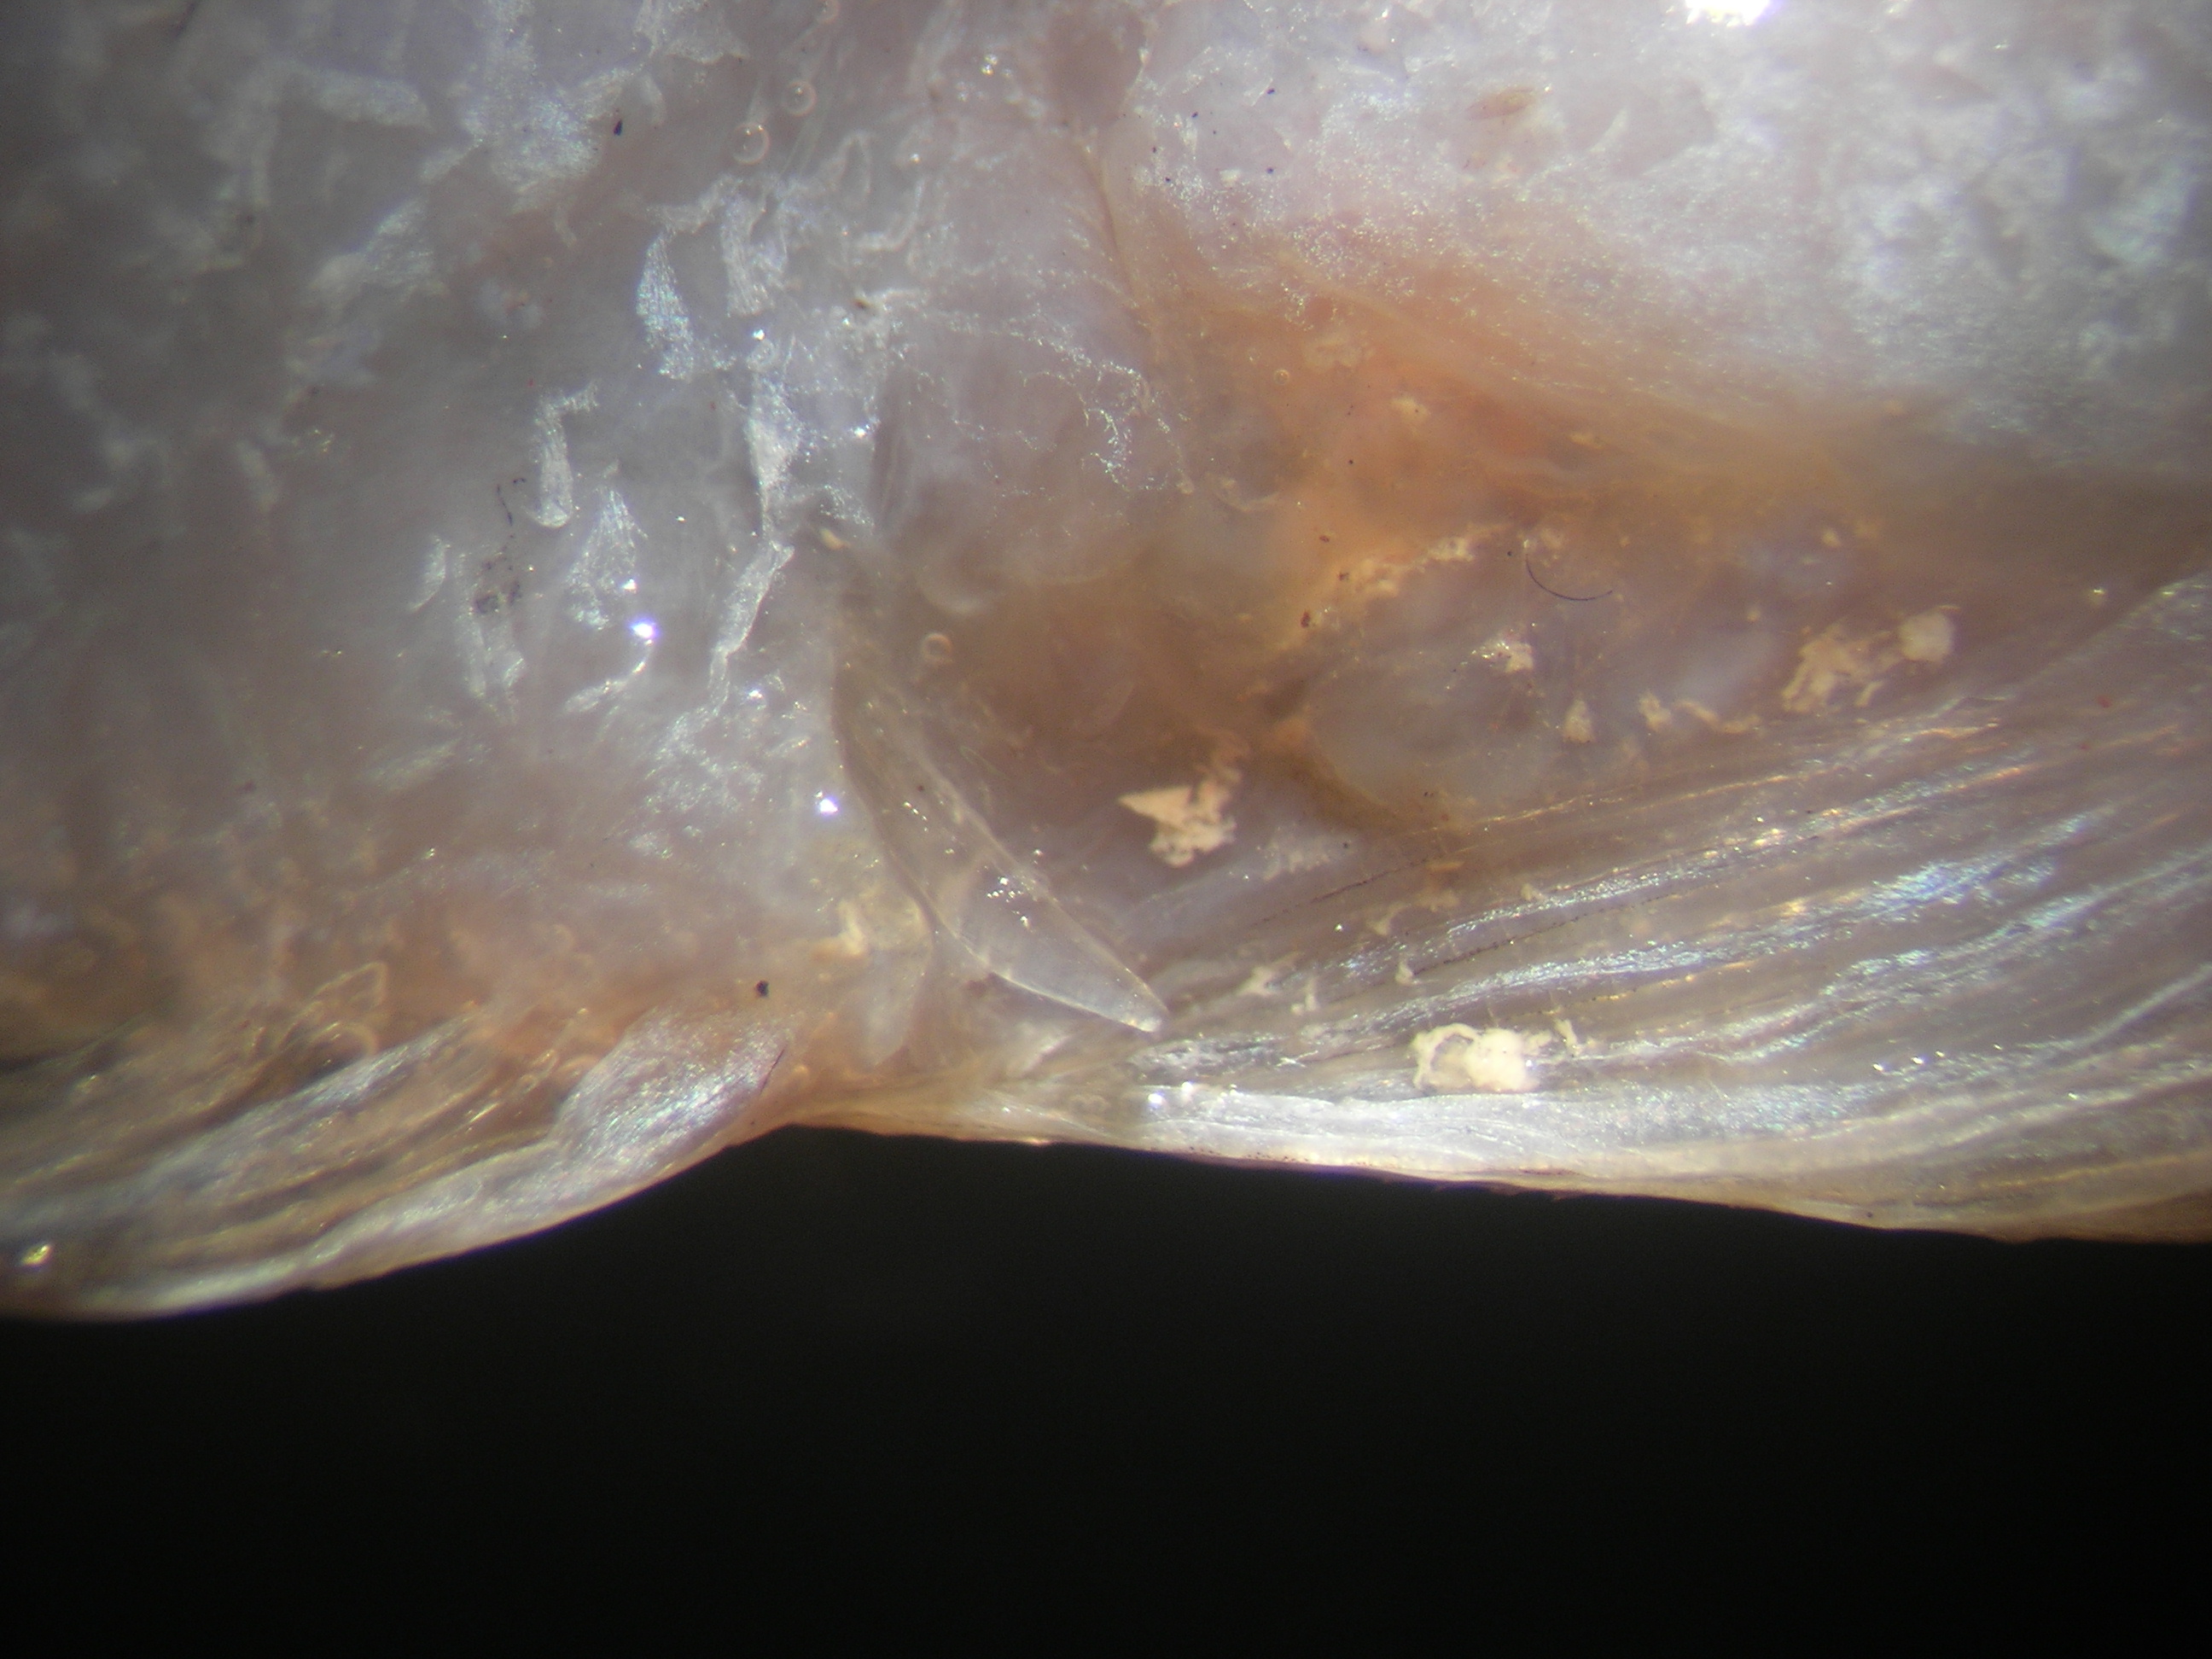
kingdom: Animalia
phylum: Chordata
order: Pleuronectiformes
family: Paralichthyidae
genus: Pseudorhombus
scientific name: Pseudorhombus elevatus
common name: Deep flounder
